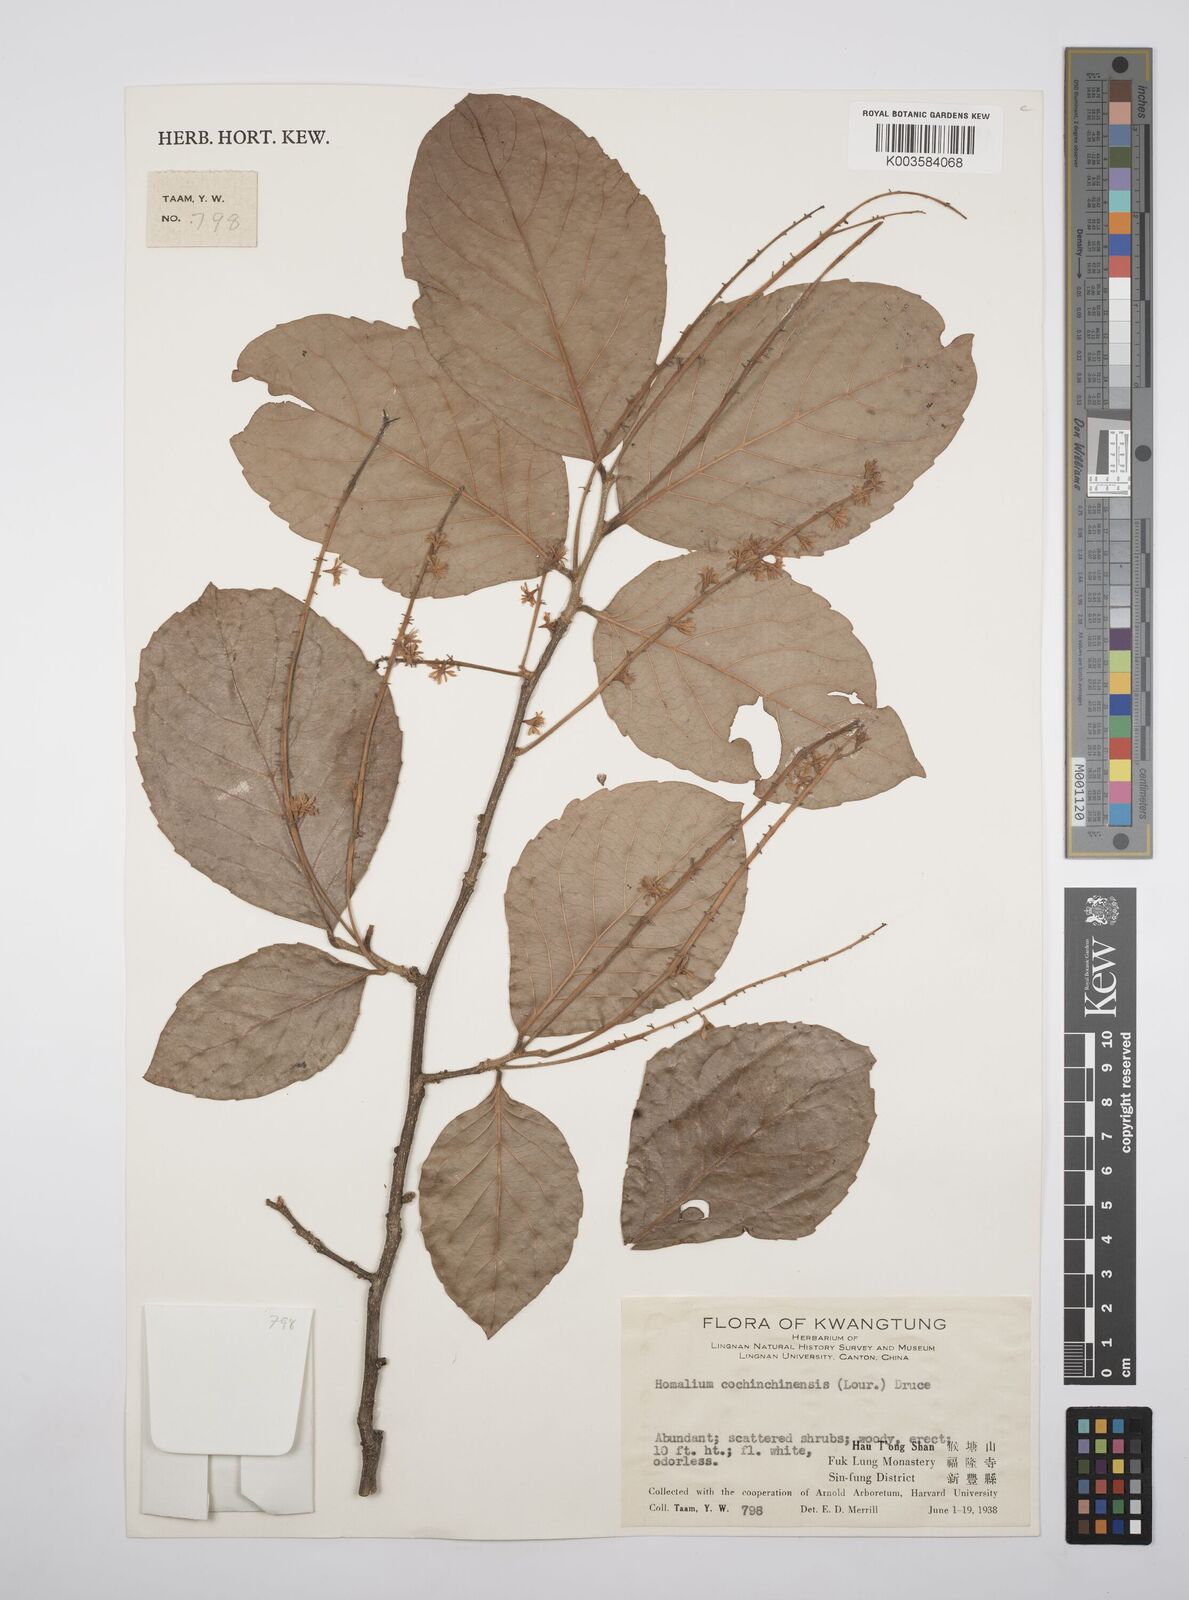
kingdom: Plantae
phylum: Tracheophyta
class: Magnoliopsida
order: Malpighiales
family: Salicaceae
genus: Homalium
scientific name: Homalium cochinchinensis
